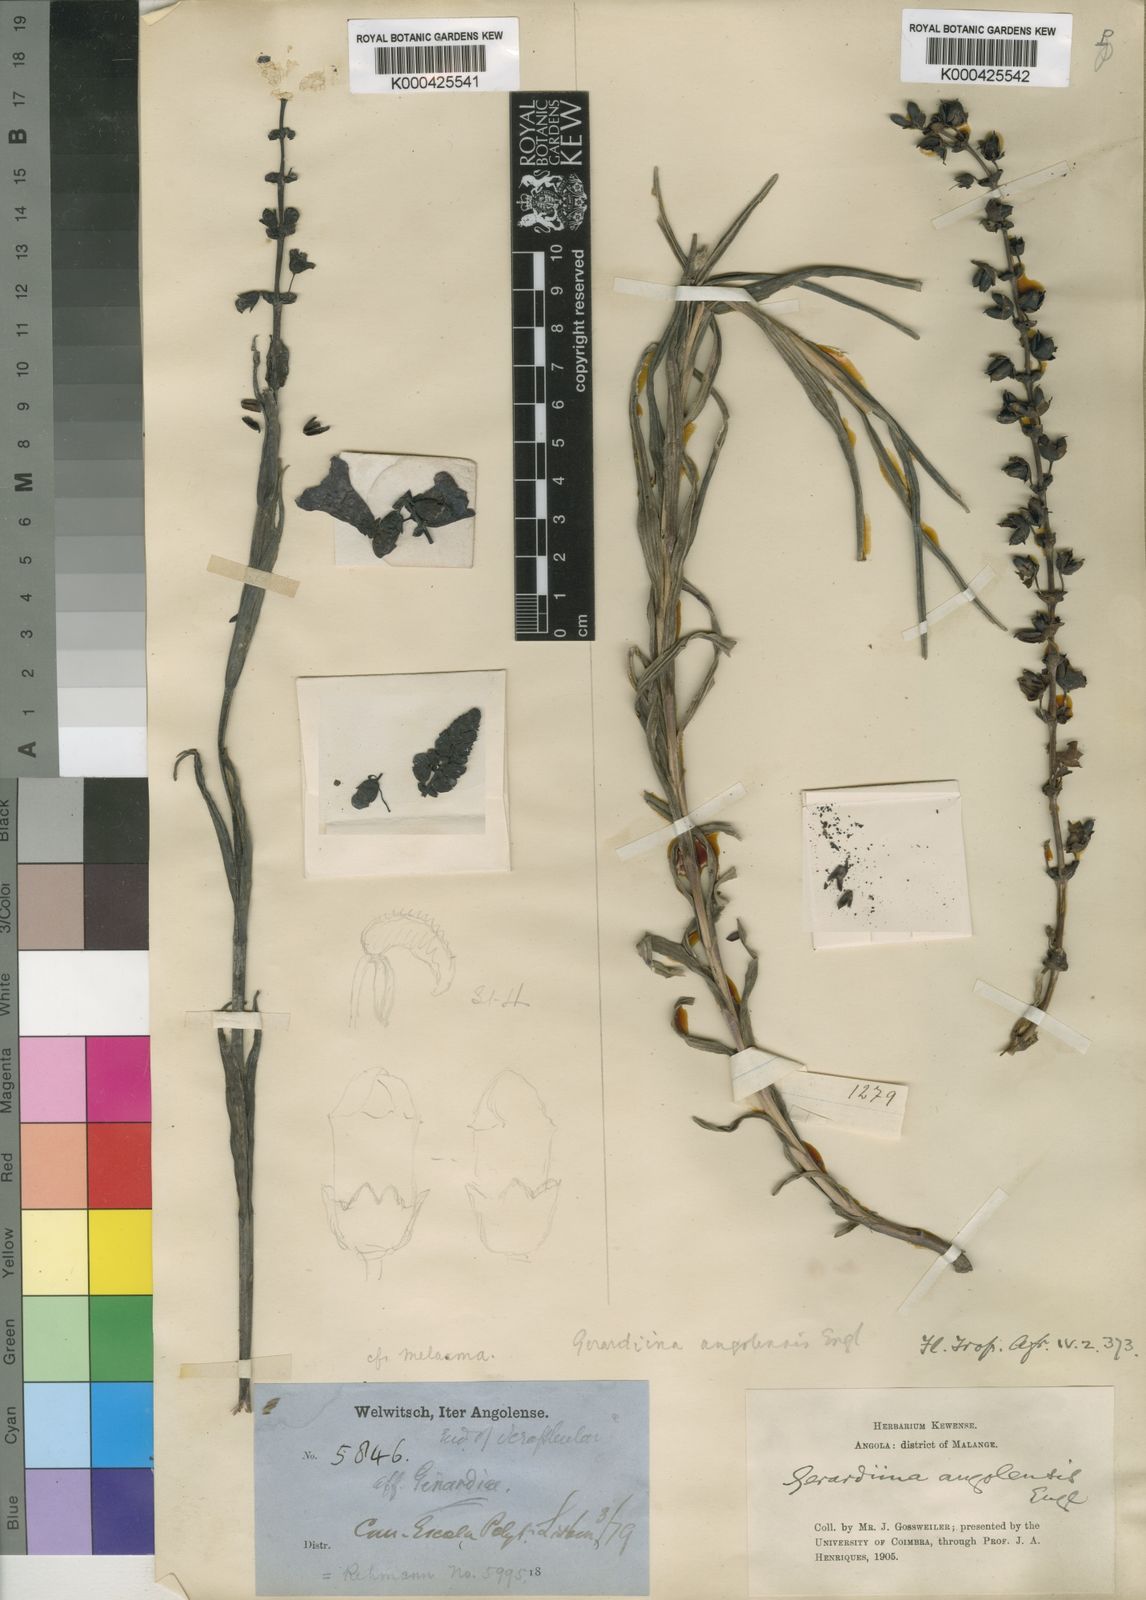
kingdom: Plantae
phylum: Tracheophyta
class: Magnoliopsida
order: Lamiales
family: Orobanchaceae
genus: Gerardiina
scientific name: Gerardiina angolensis
